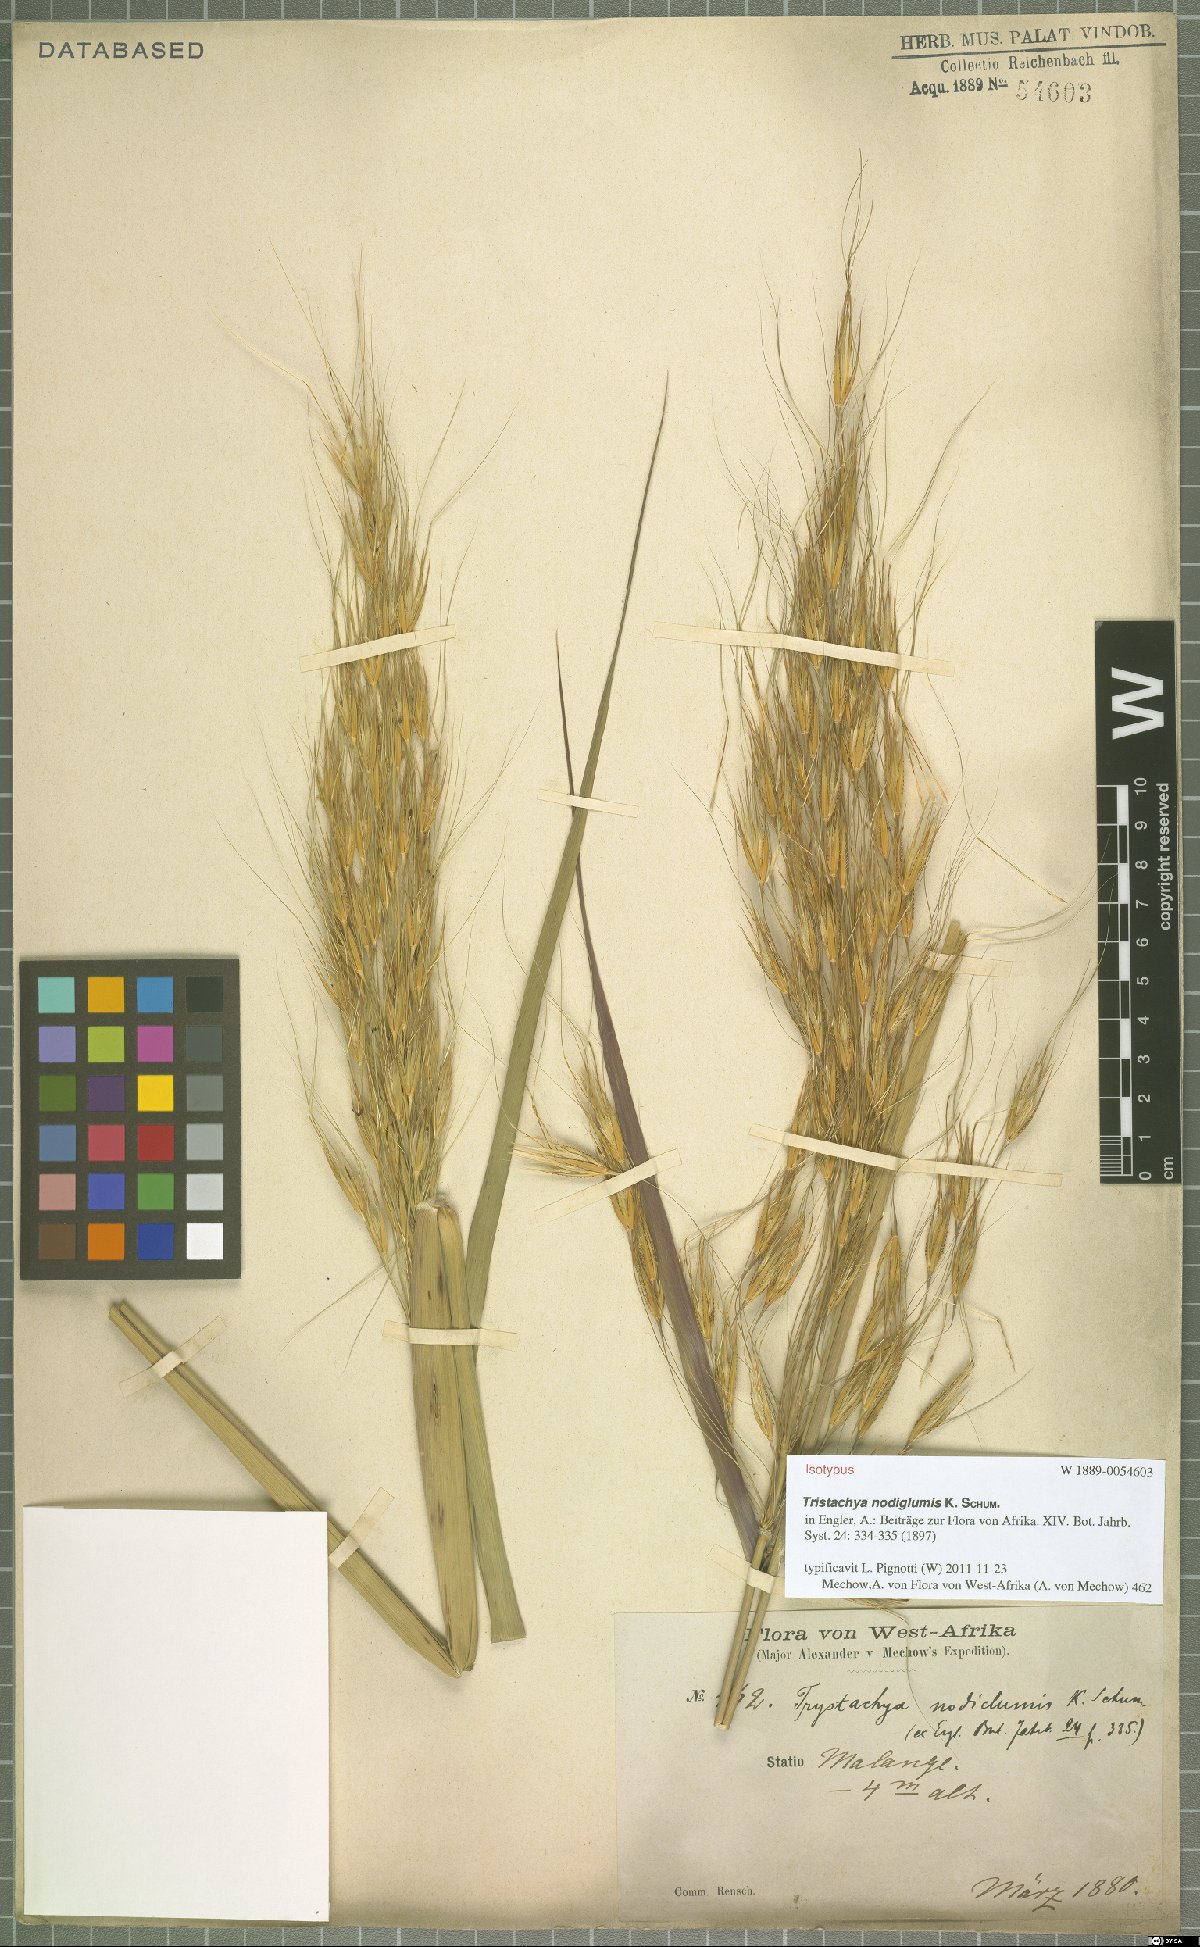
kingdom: Plantae
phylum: Tracheophyta
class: Liliopsida
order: Poales
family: Poaceae
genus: Tristachya
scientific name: Tristachya nodiglumis
